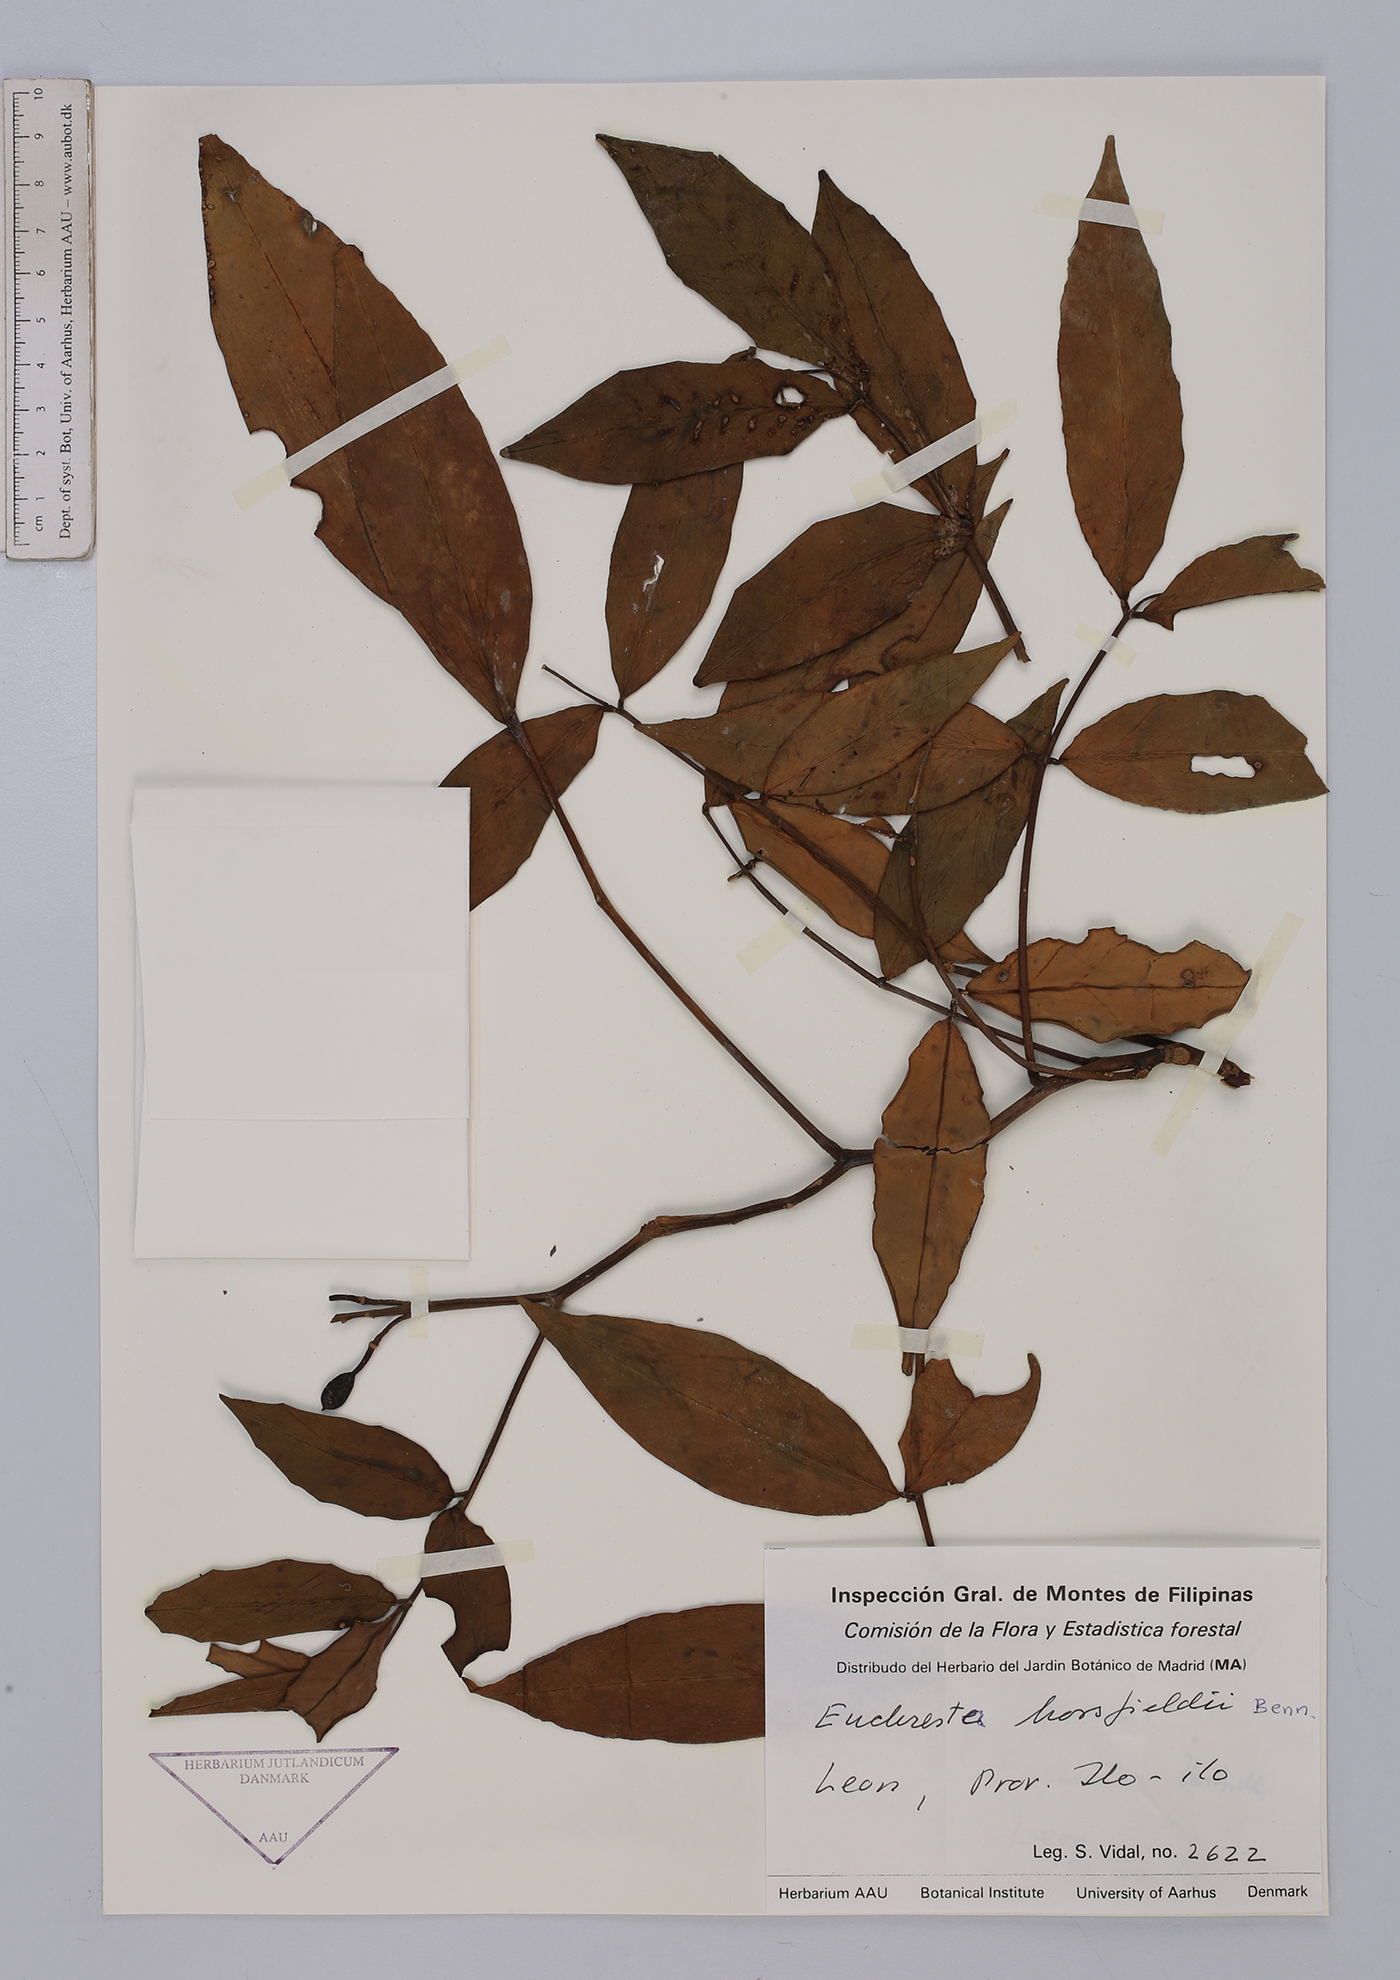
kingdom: Plantae
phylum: Tracheophyta
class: Magnoliopsida
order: Fabales
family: Fabaceae
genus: Euchresta
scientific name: Euchresta horsfieldii
